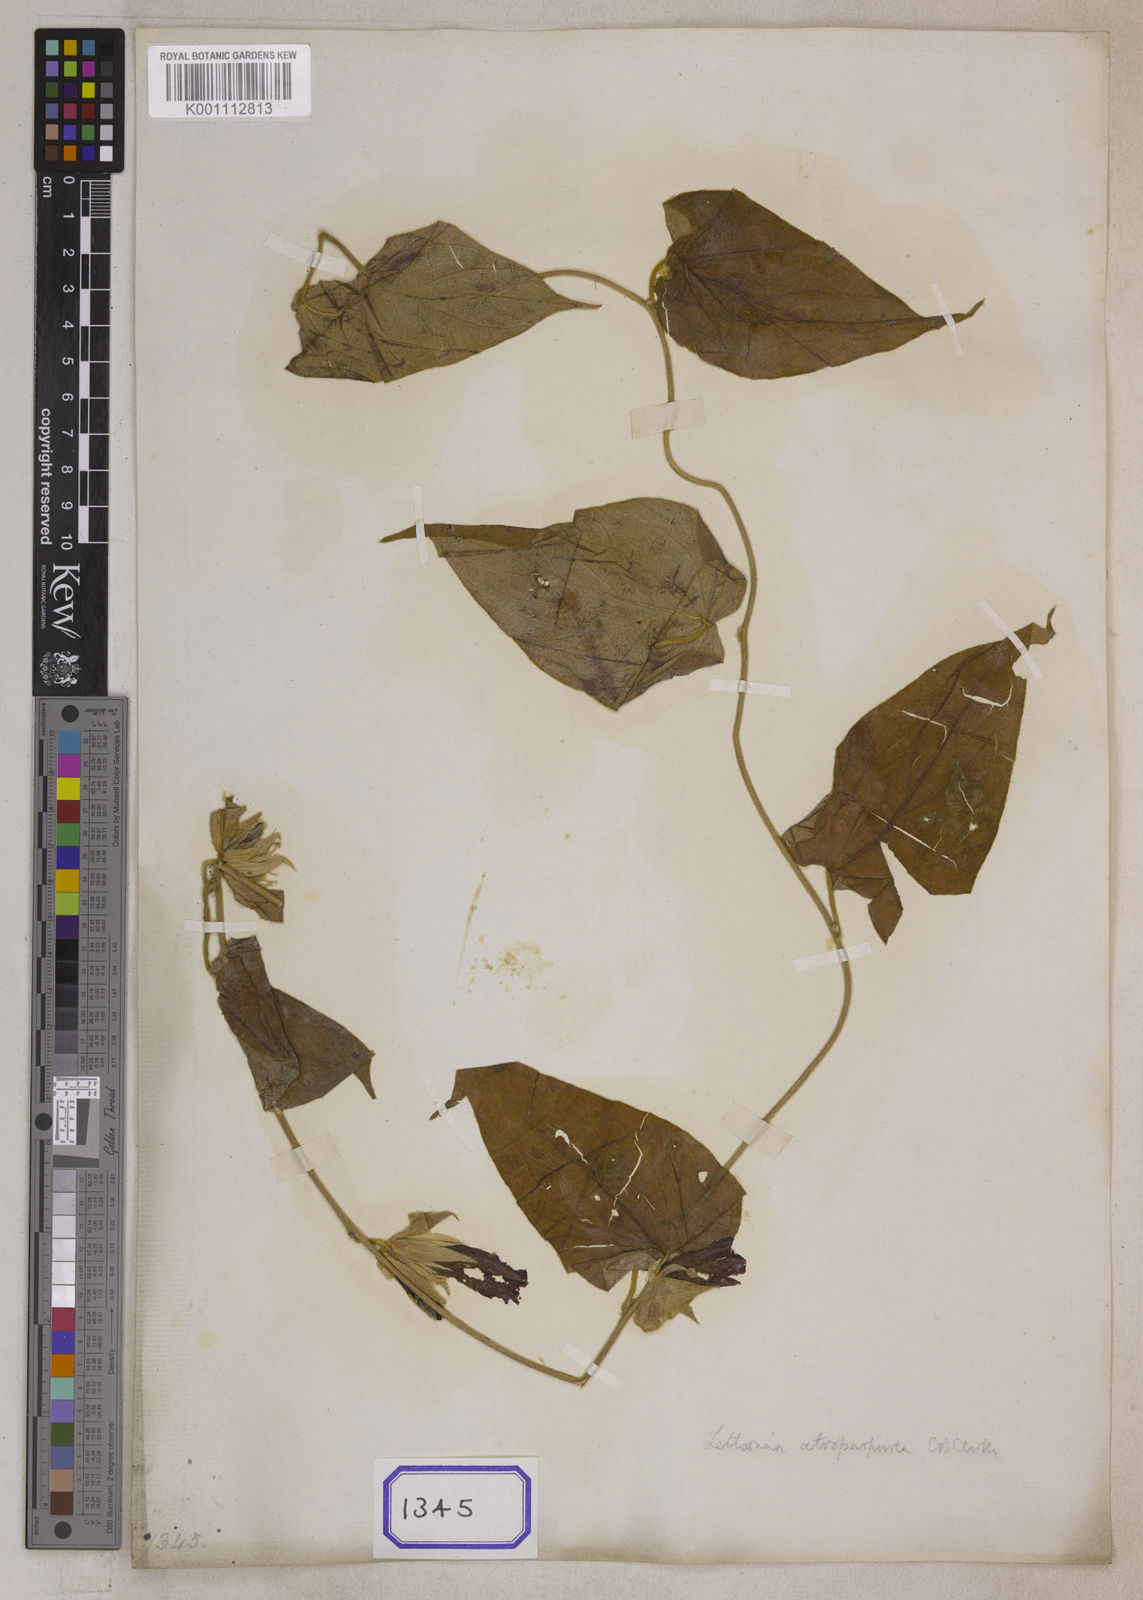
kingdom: Plantae
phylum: Tracheophyta
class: Magnoliopsida
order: Solanales
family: Convolvulaceae
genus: Argyreia
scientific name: Argyreia atropurpurea
